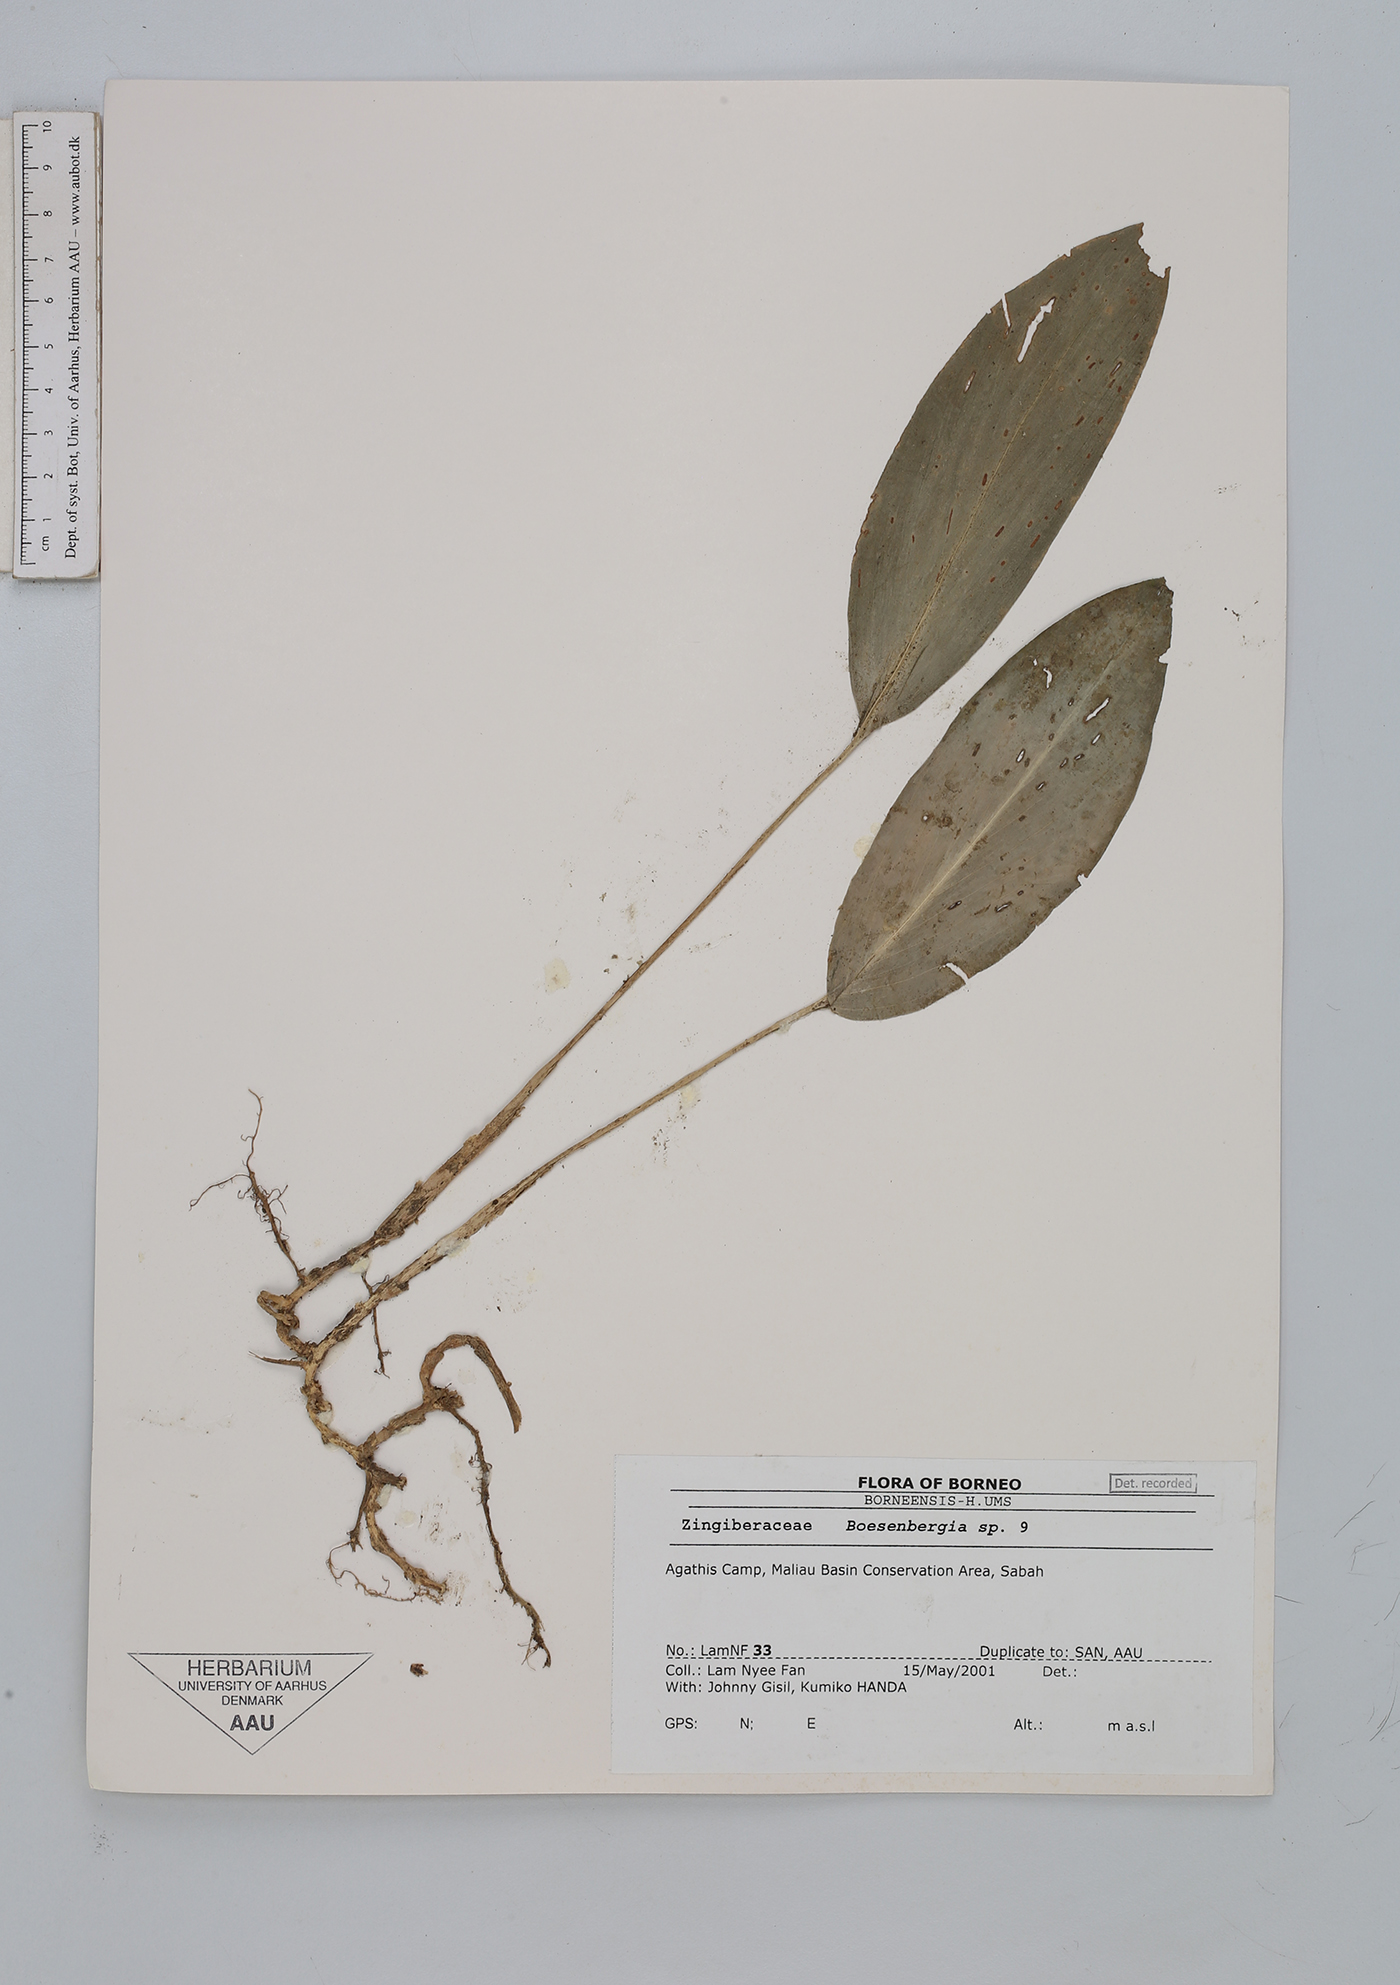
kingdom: Plantae
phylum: Tracheophyta
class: Liliopsida
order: Zingiberales
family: Zingiberaceae
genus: Boesenbergia
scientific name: Boesenbergia
